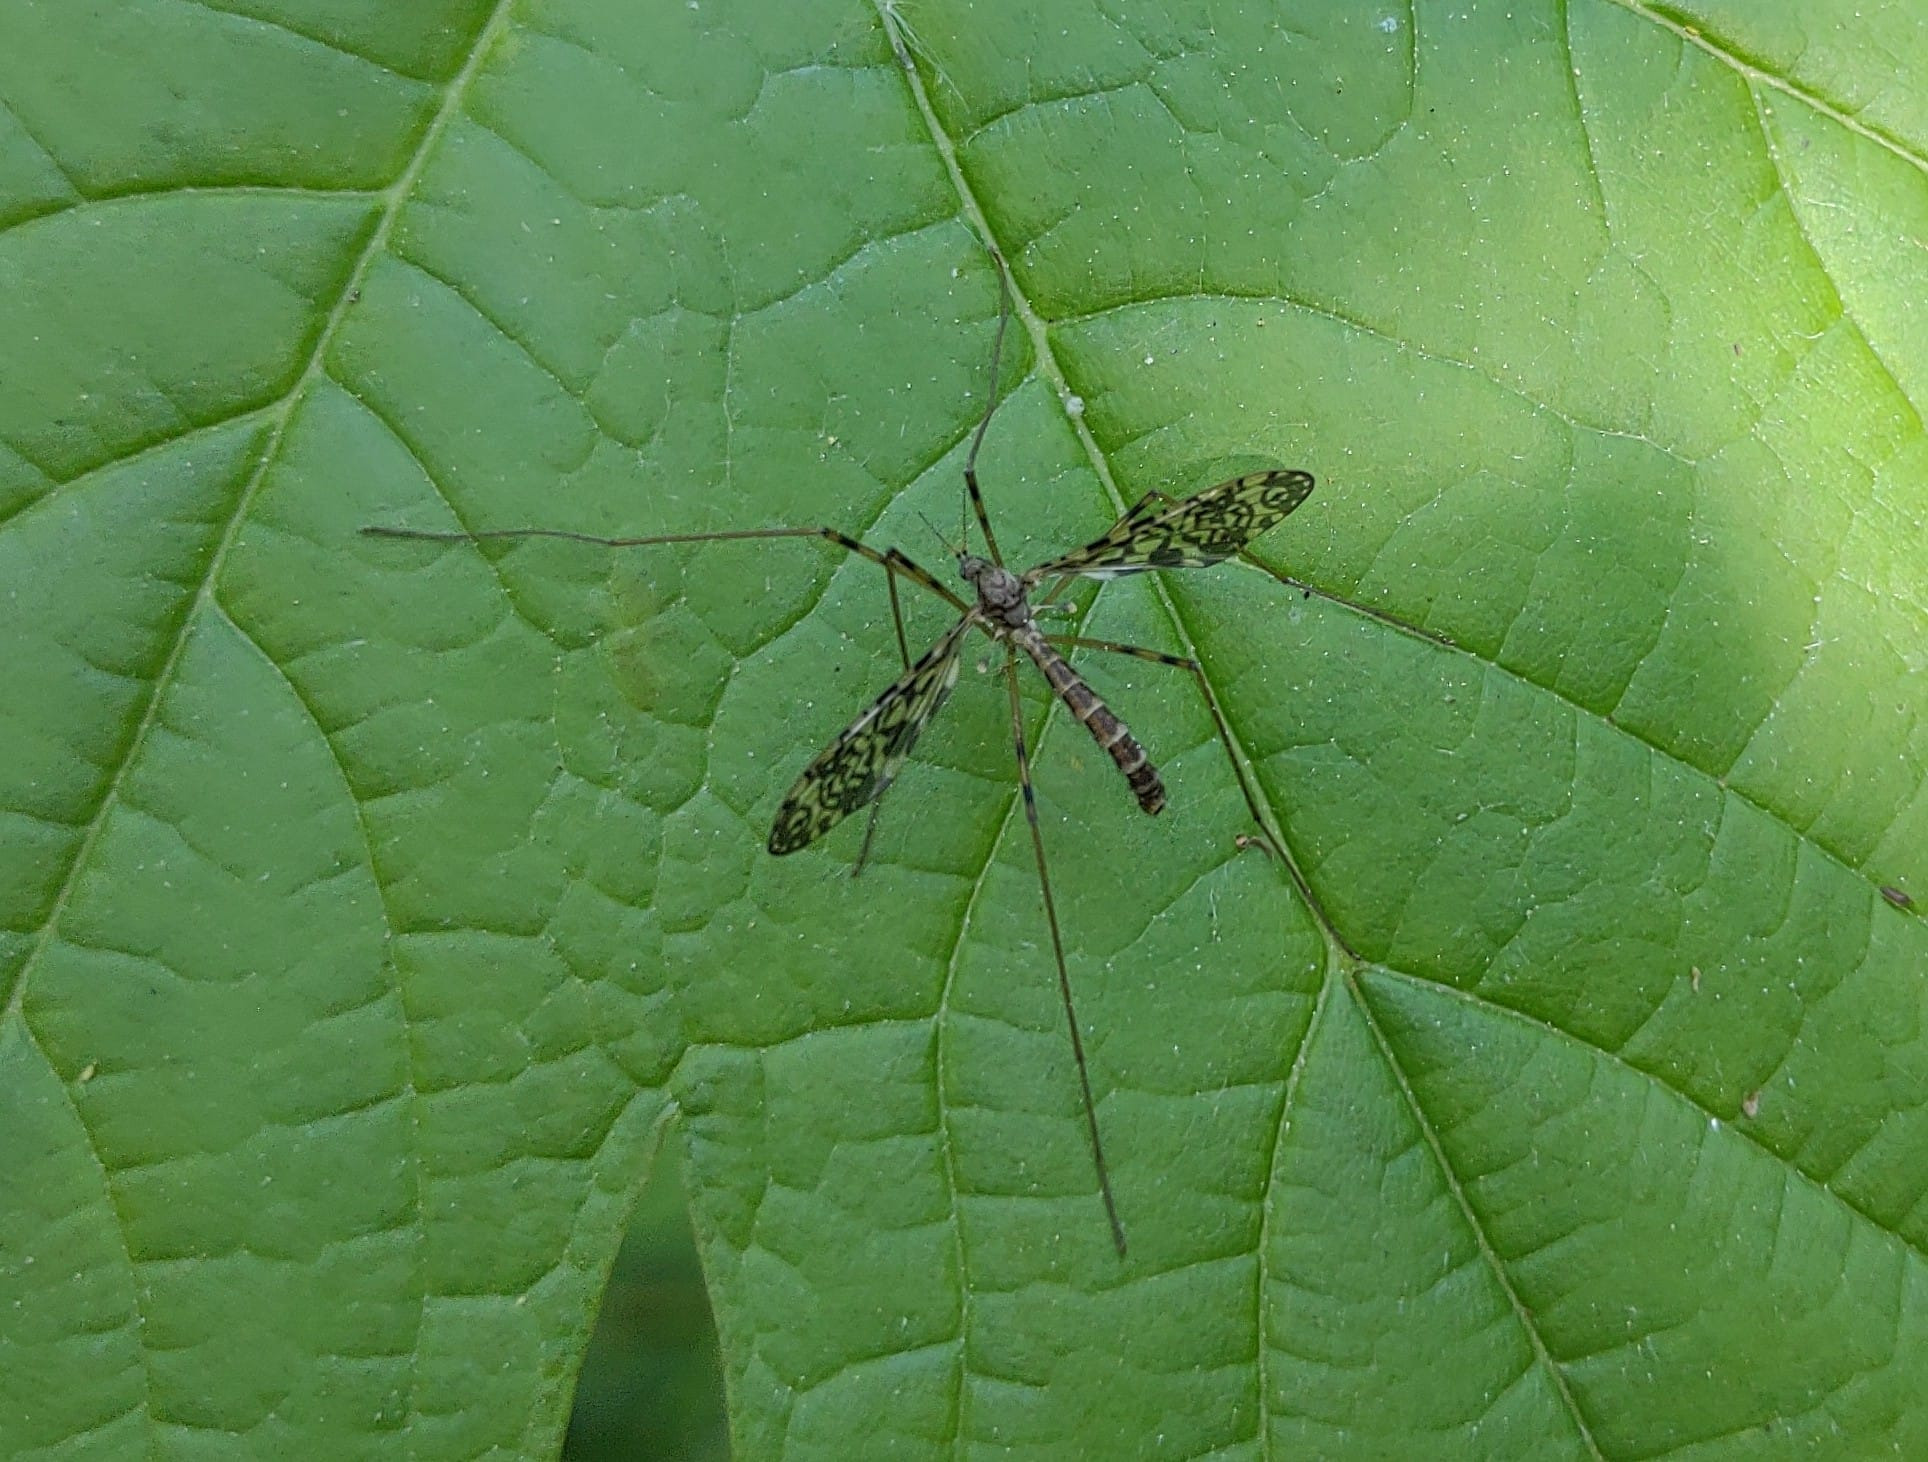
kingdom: Animalia
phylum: Arthropoda
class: Insecta
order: Diptera
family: Limoniidae
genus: Epiphragma
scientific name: Epiphragma ocellare
